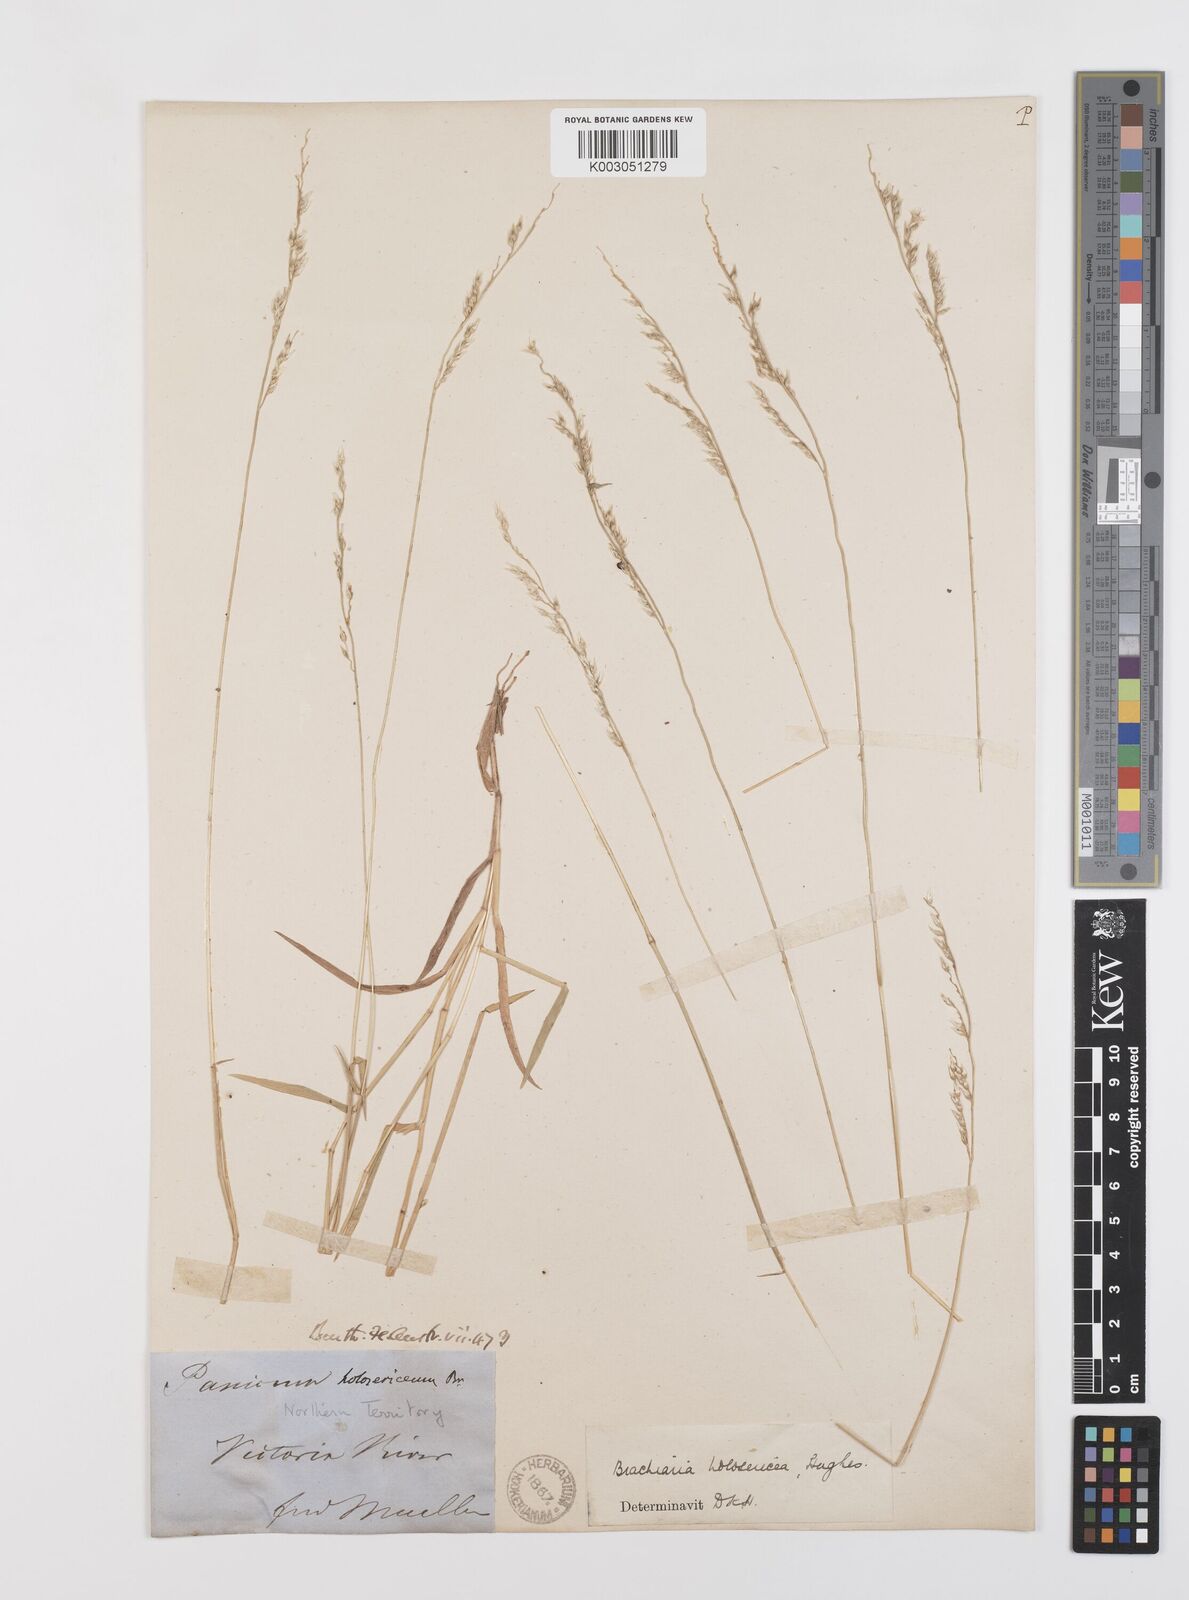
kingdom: Plantae
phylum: Tracheophyta
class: Liliopsida
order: Poales
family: Poaceae
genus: Urochloa
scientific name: Urochloa holosericea
